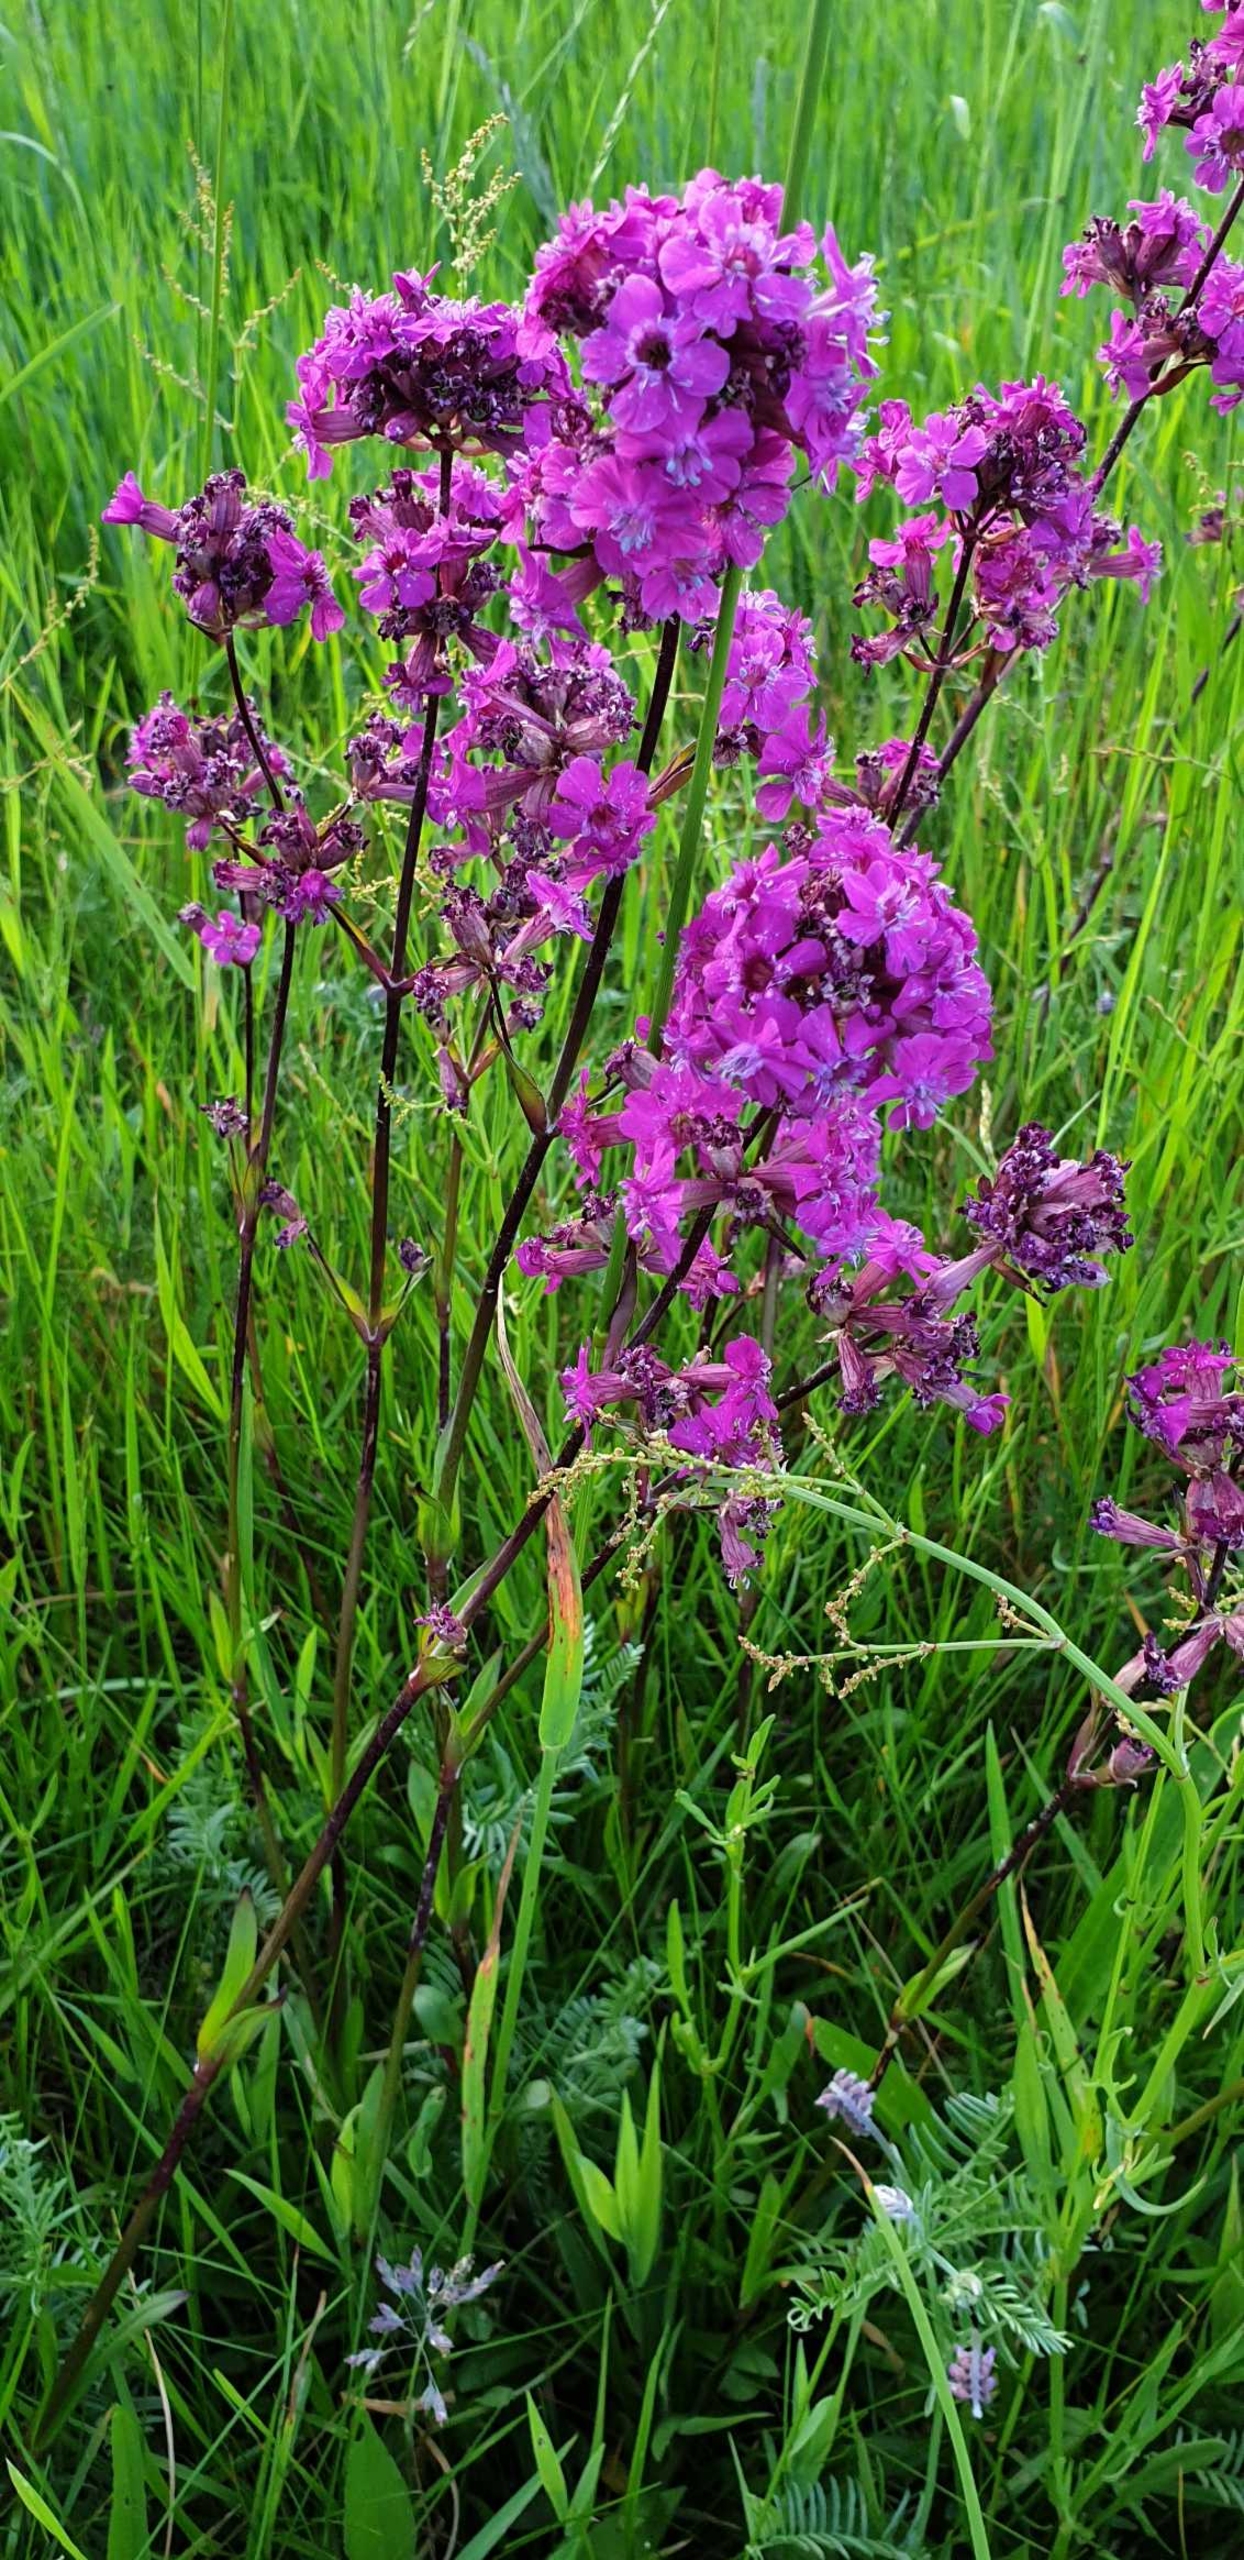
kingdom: Plantae
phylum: Tracheophyta
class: Magnoliopsida
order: Caryophyllales
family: Caryophyllaceae
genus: Viscaria
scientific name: Viscaria vulgaris
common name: Tjærenellike
